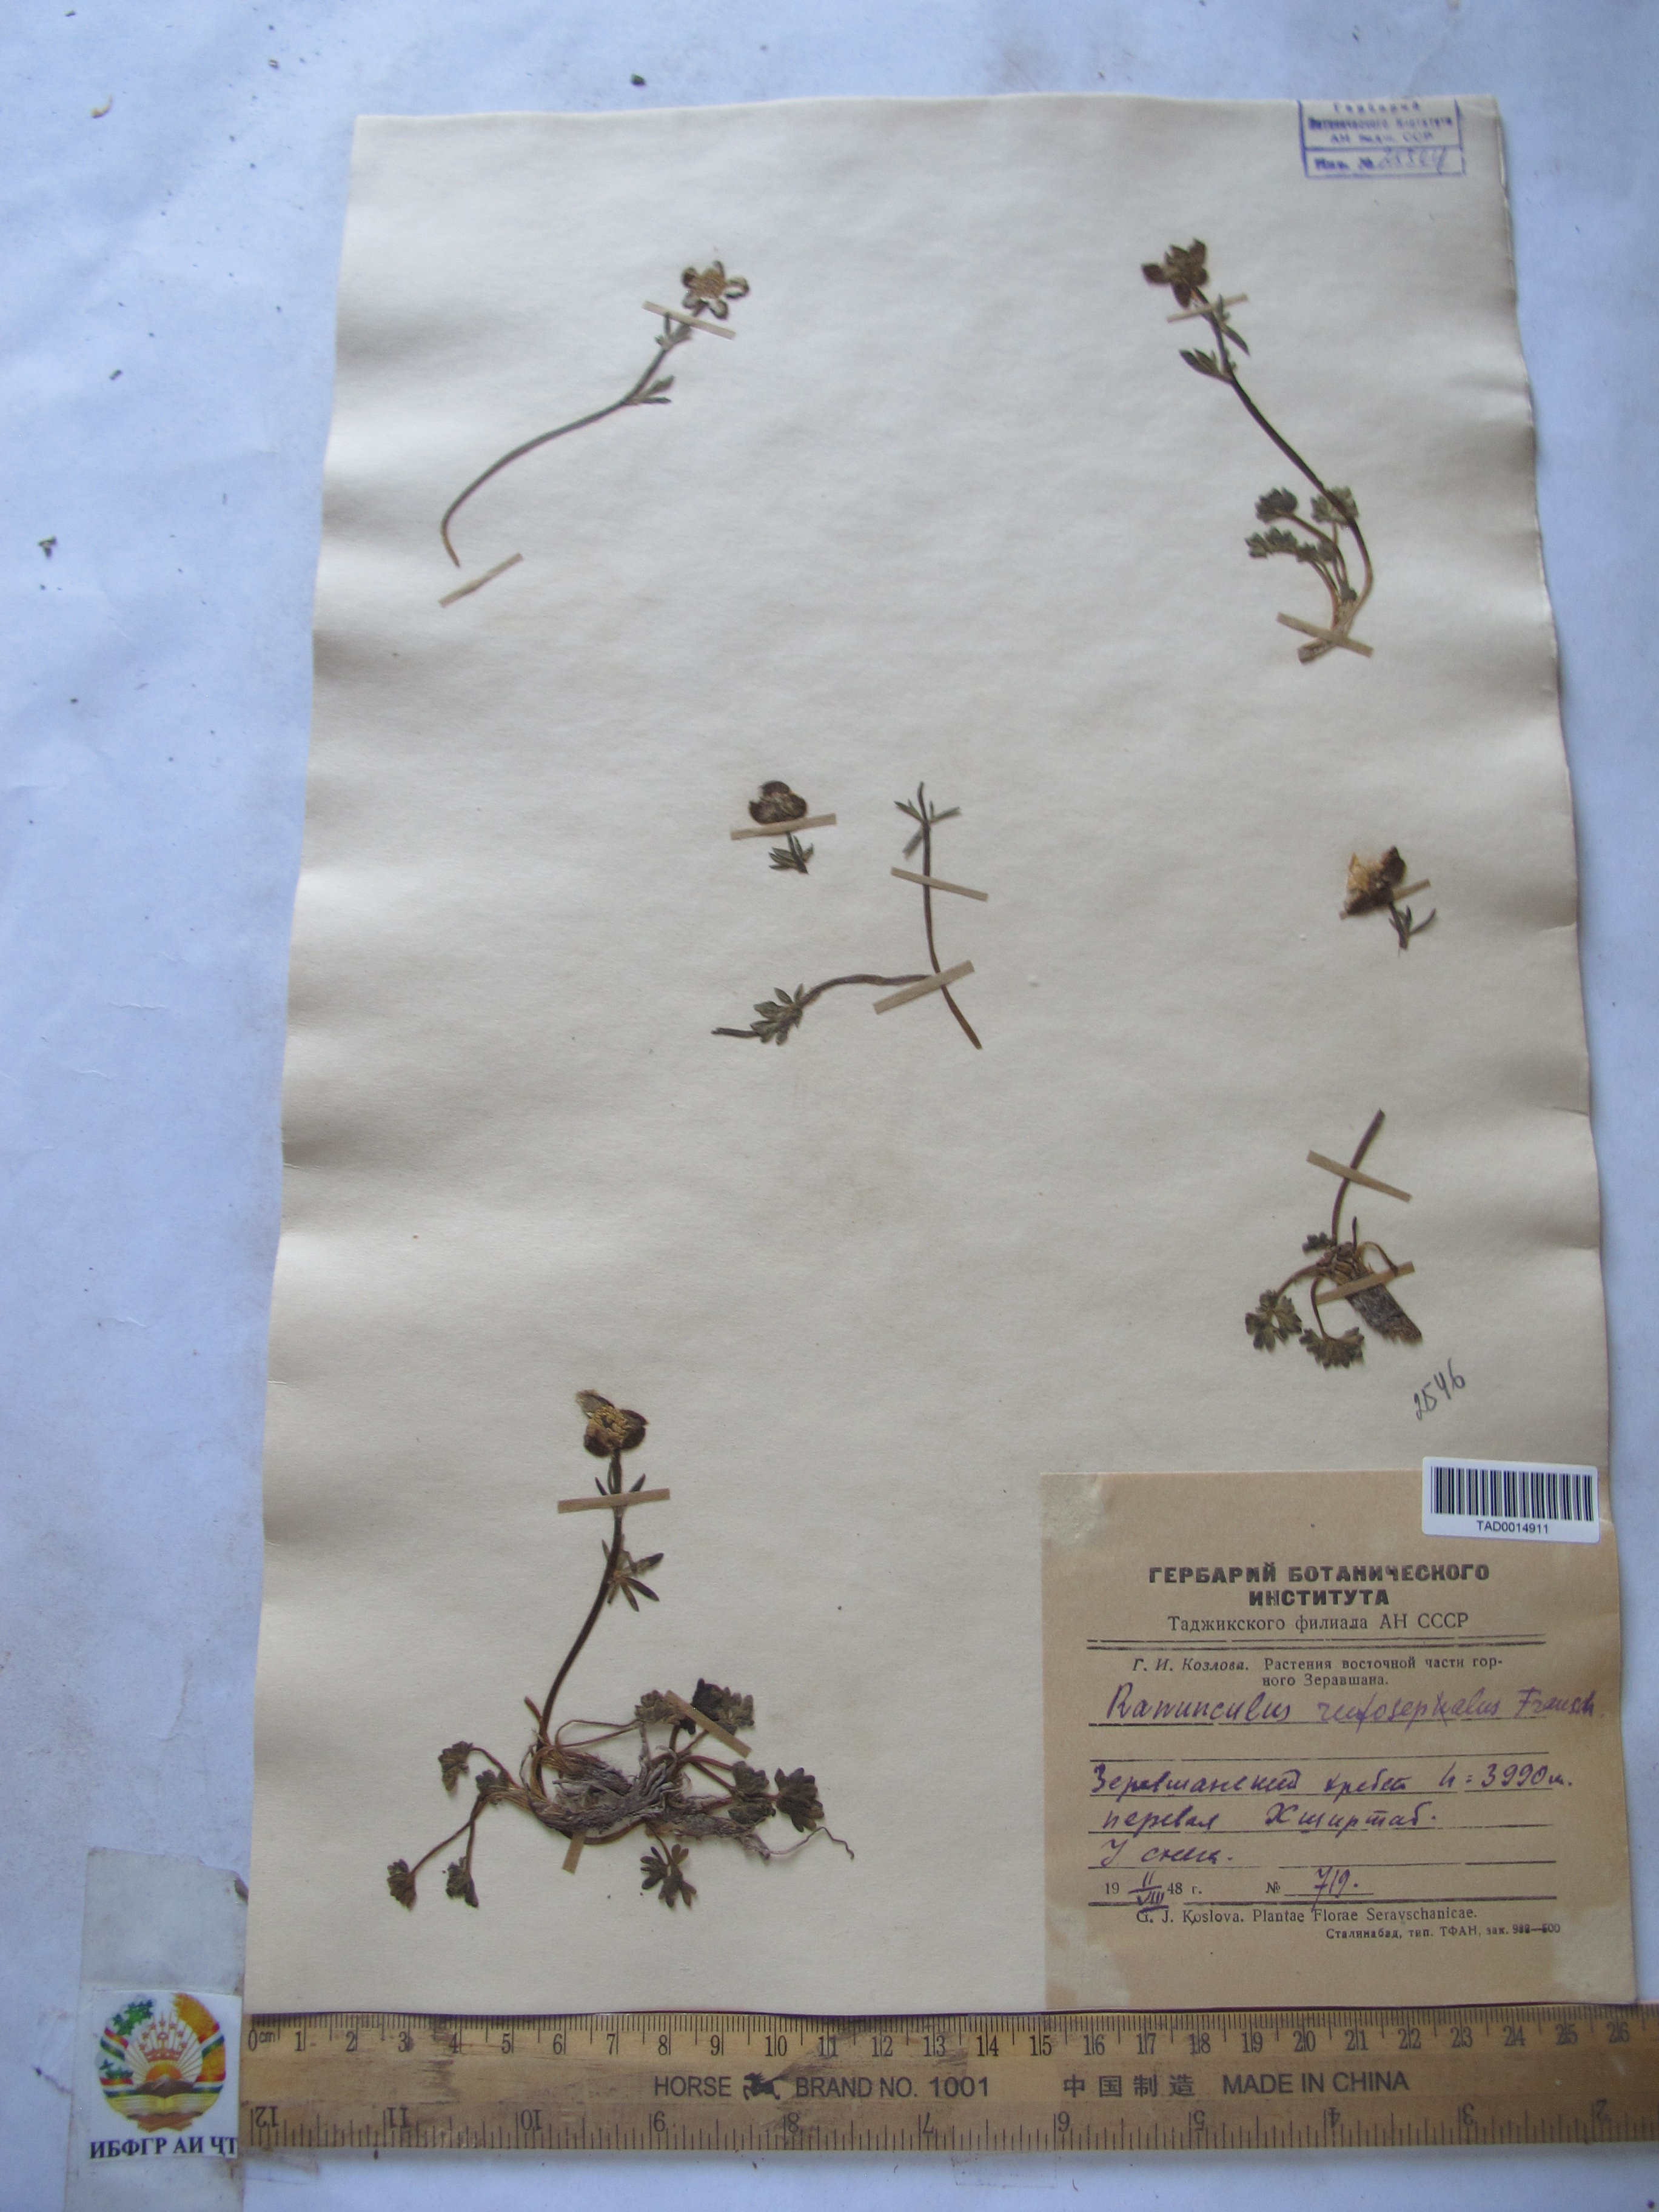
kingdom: Plantae
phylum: Tracheophyta
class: Magnoliopsida
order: Ranunculales
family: Ranunculaceae
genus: Ranunculus
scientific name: Ranunculus rufosepalus
